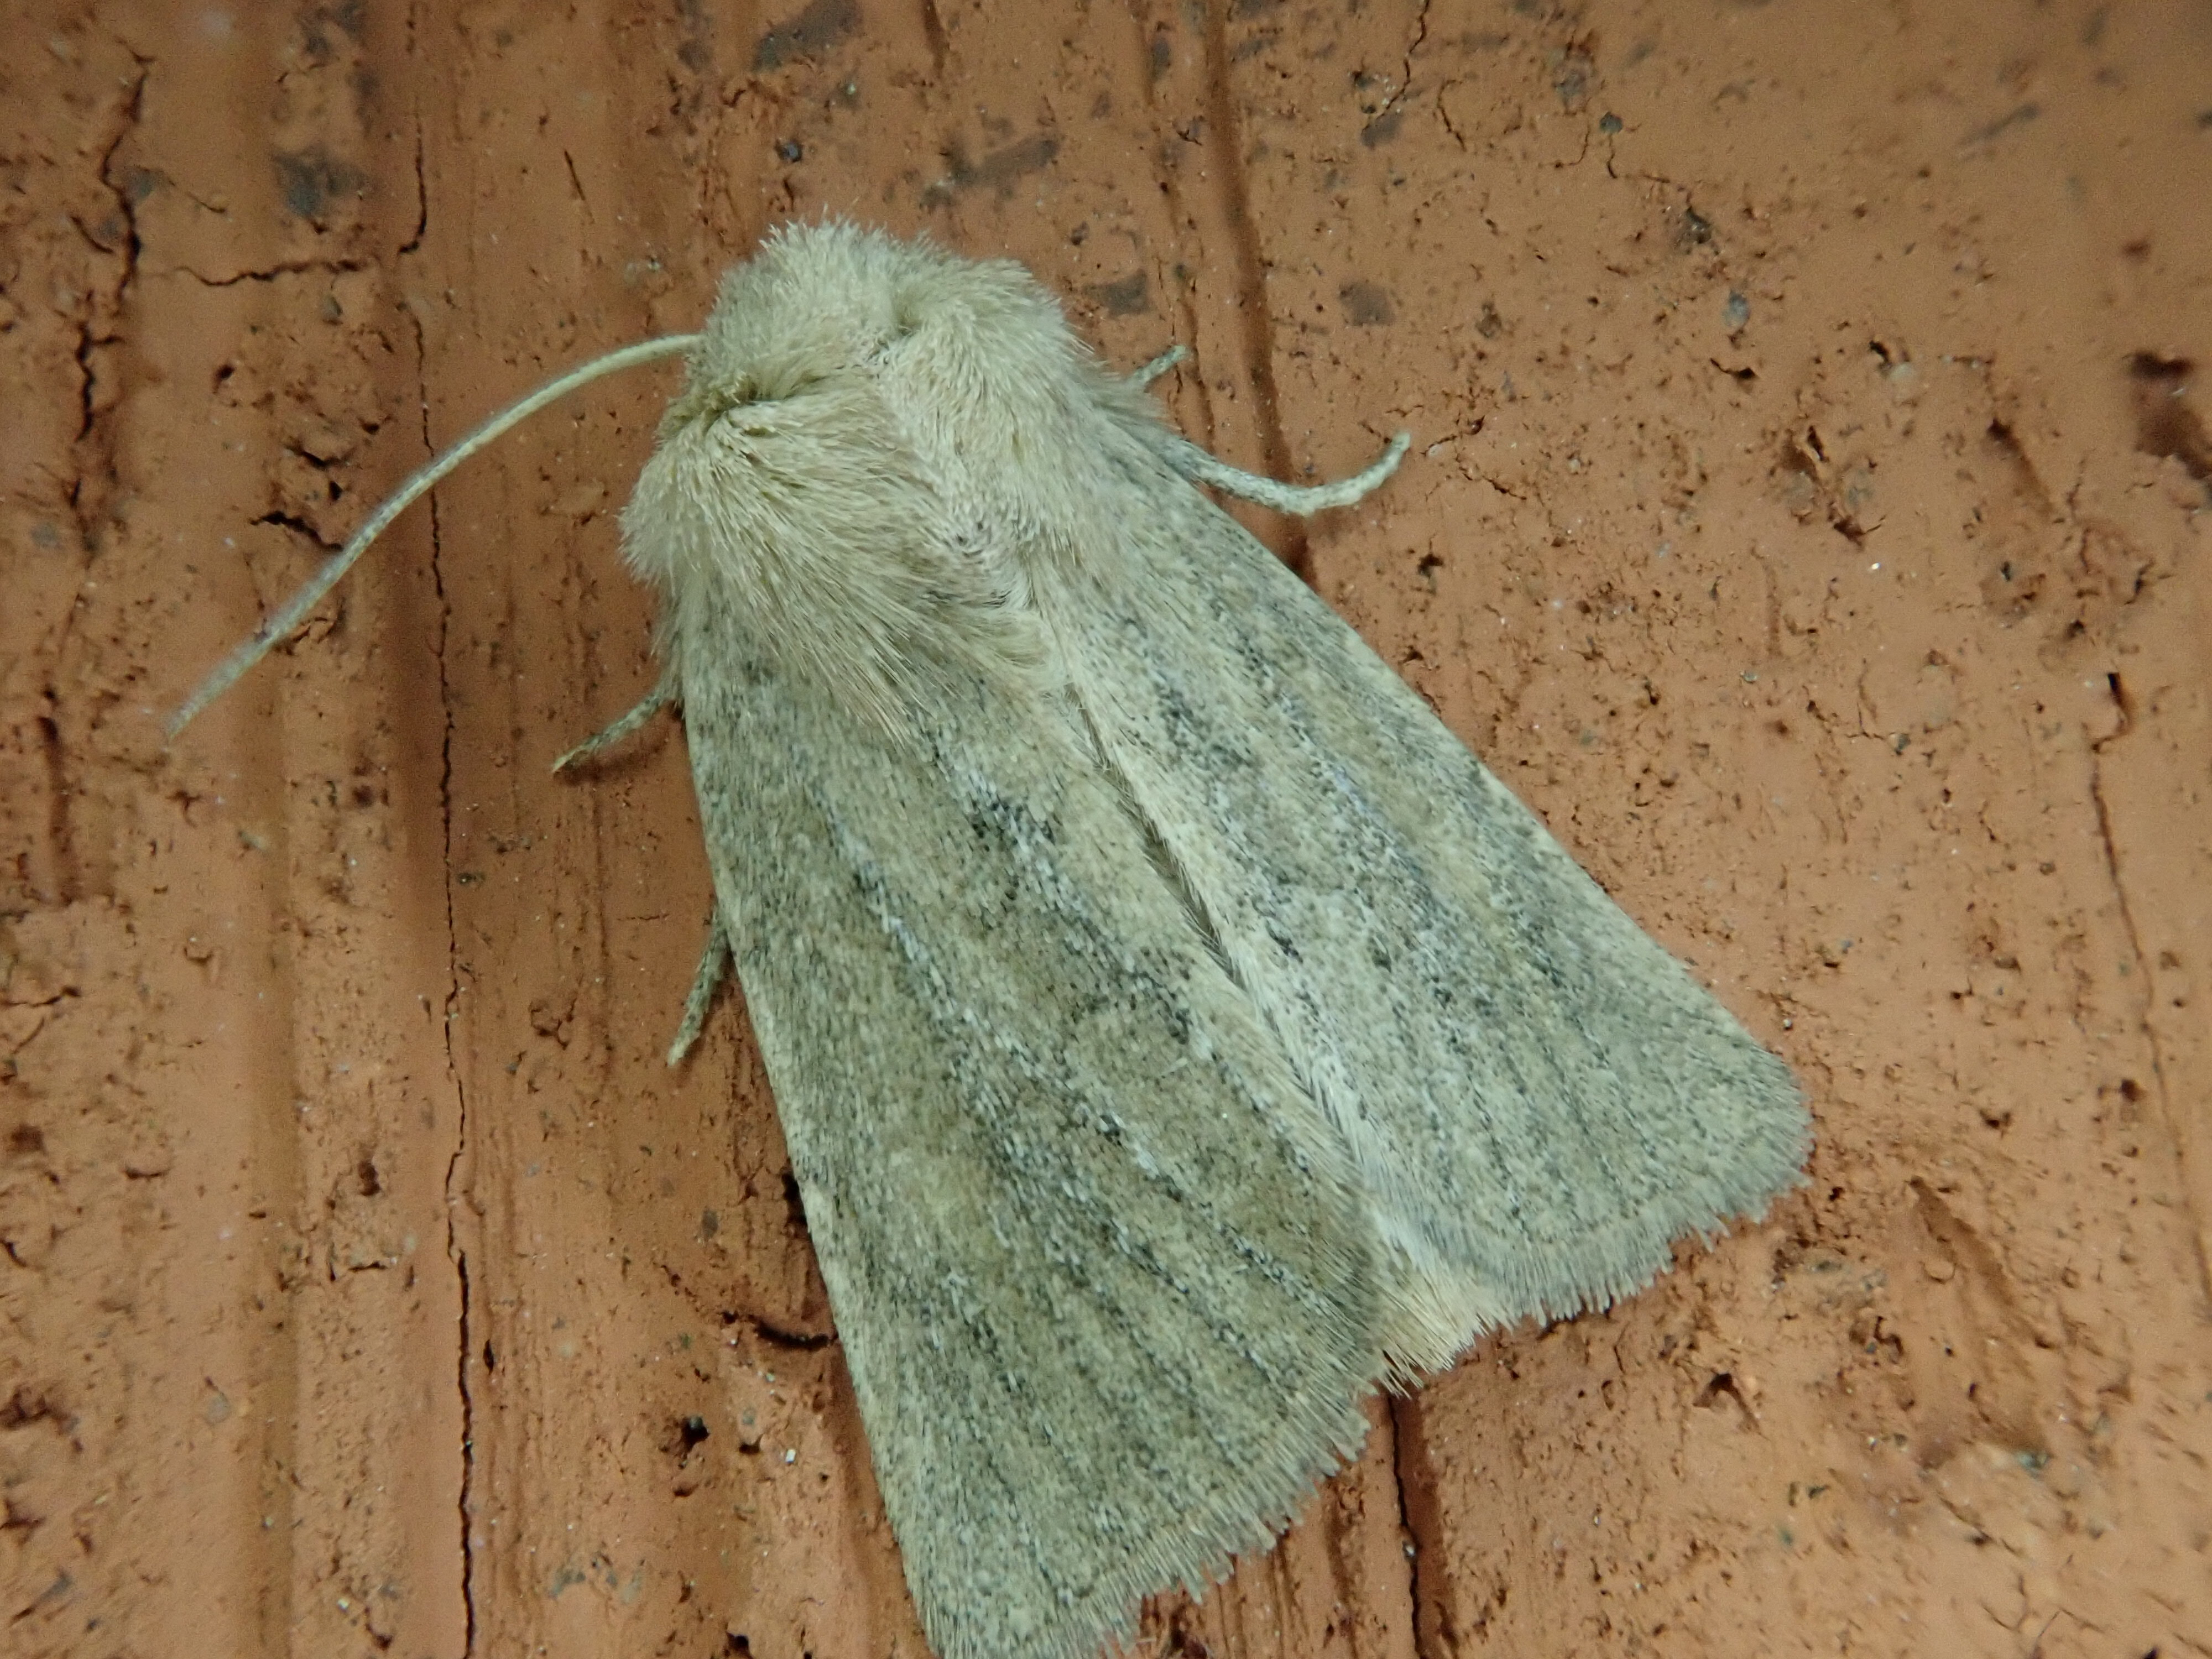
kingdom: Animalia
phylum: Arthropoda
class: Insecta
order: Lepidoptera
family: Noctuidae
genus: Photedes
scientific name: Photedes fluxa
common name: Mere wainscot
